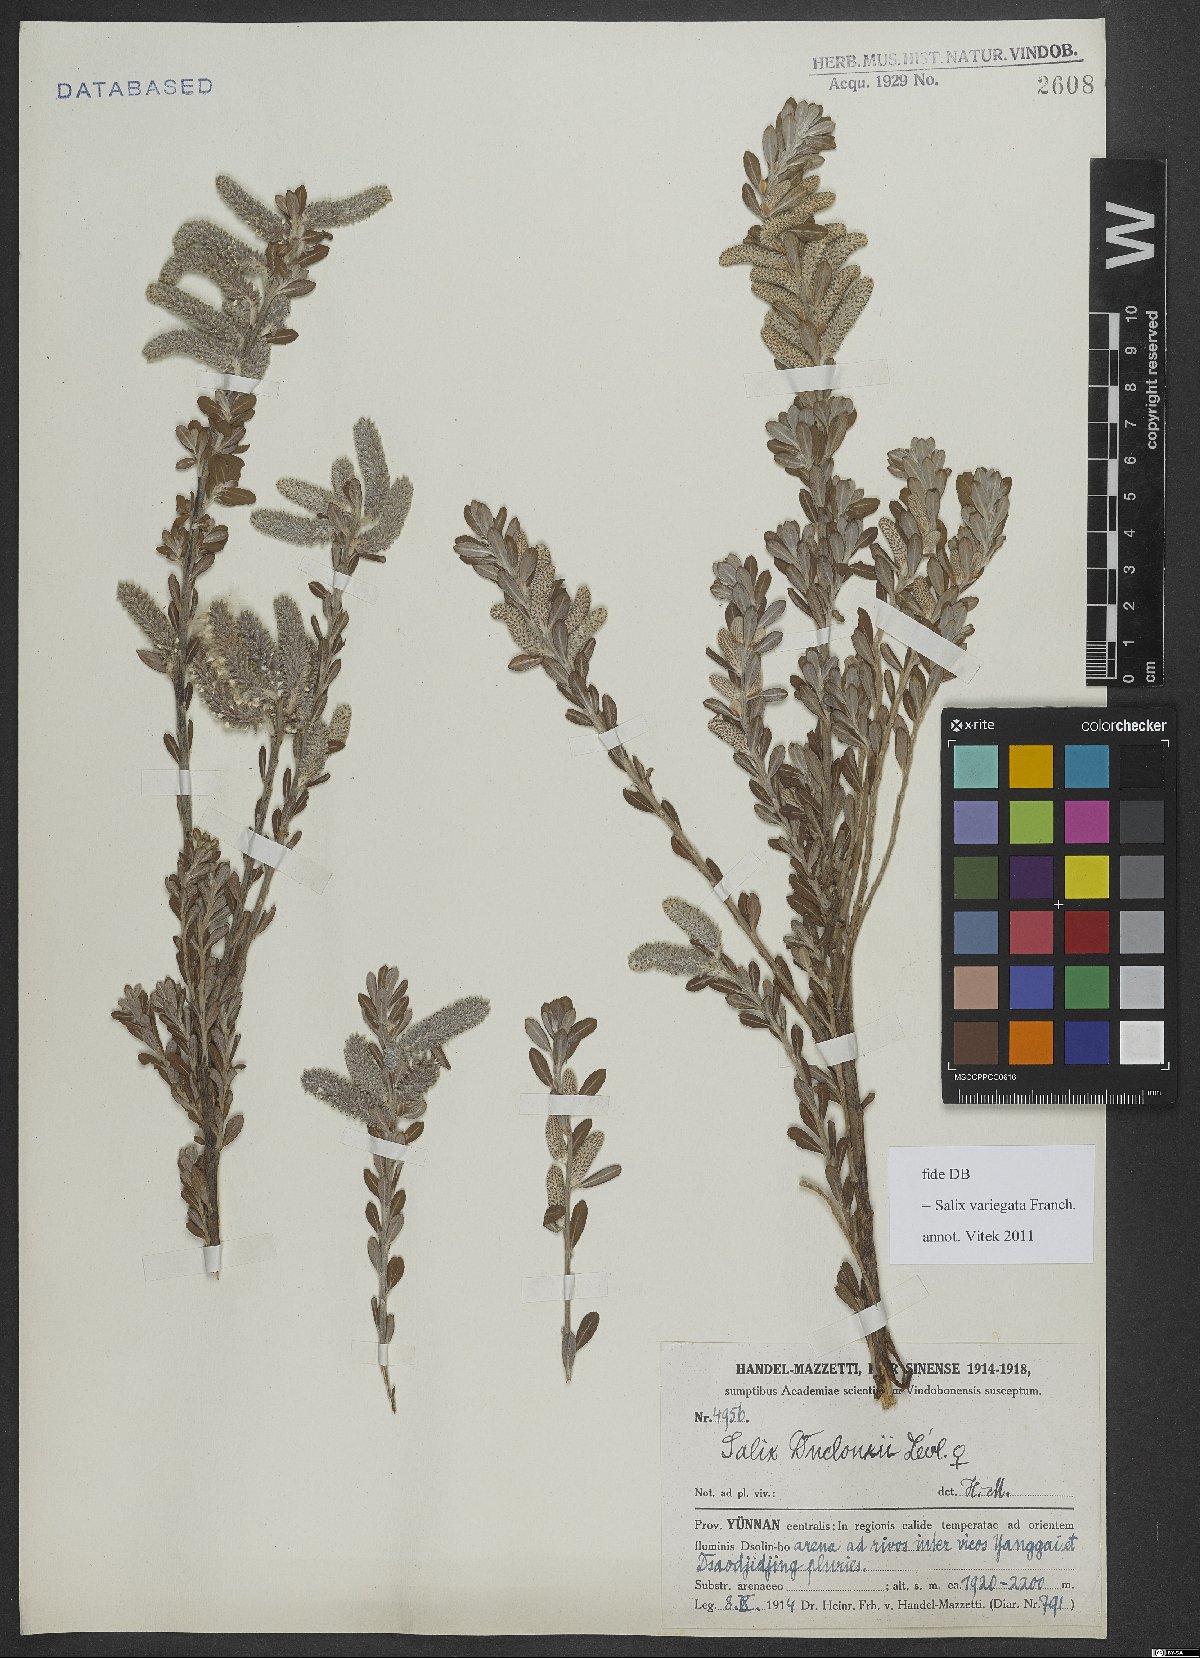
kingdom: Plantae
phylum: Tracheophyta
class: Magnoliopsida
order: Malpighiales
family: Salicaceae
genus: Salix
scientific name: Salix variegata
